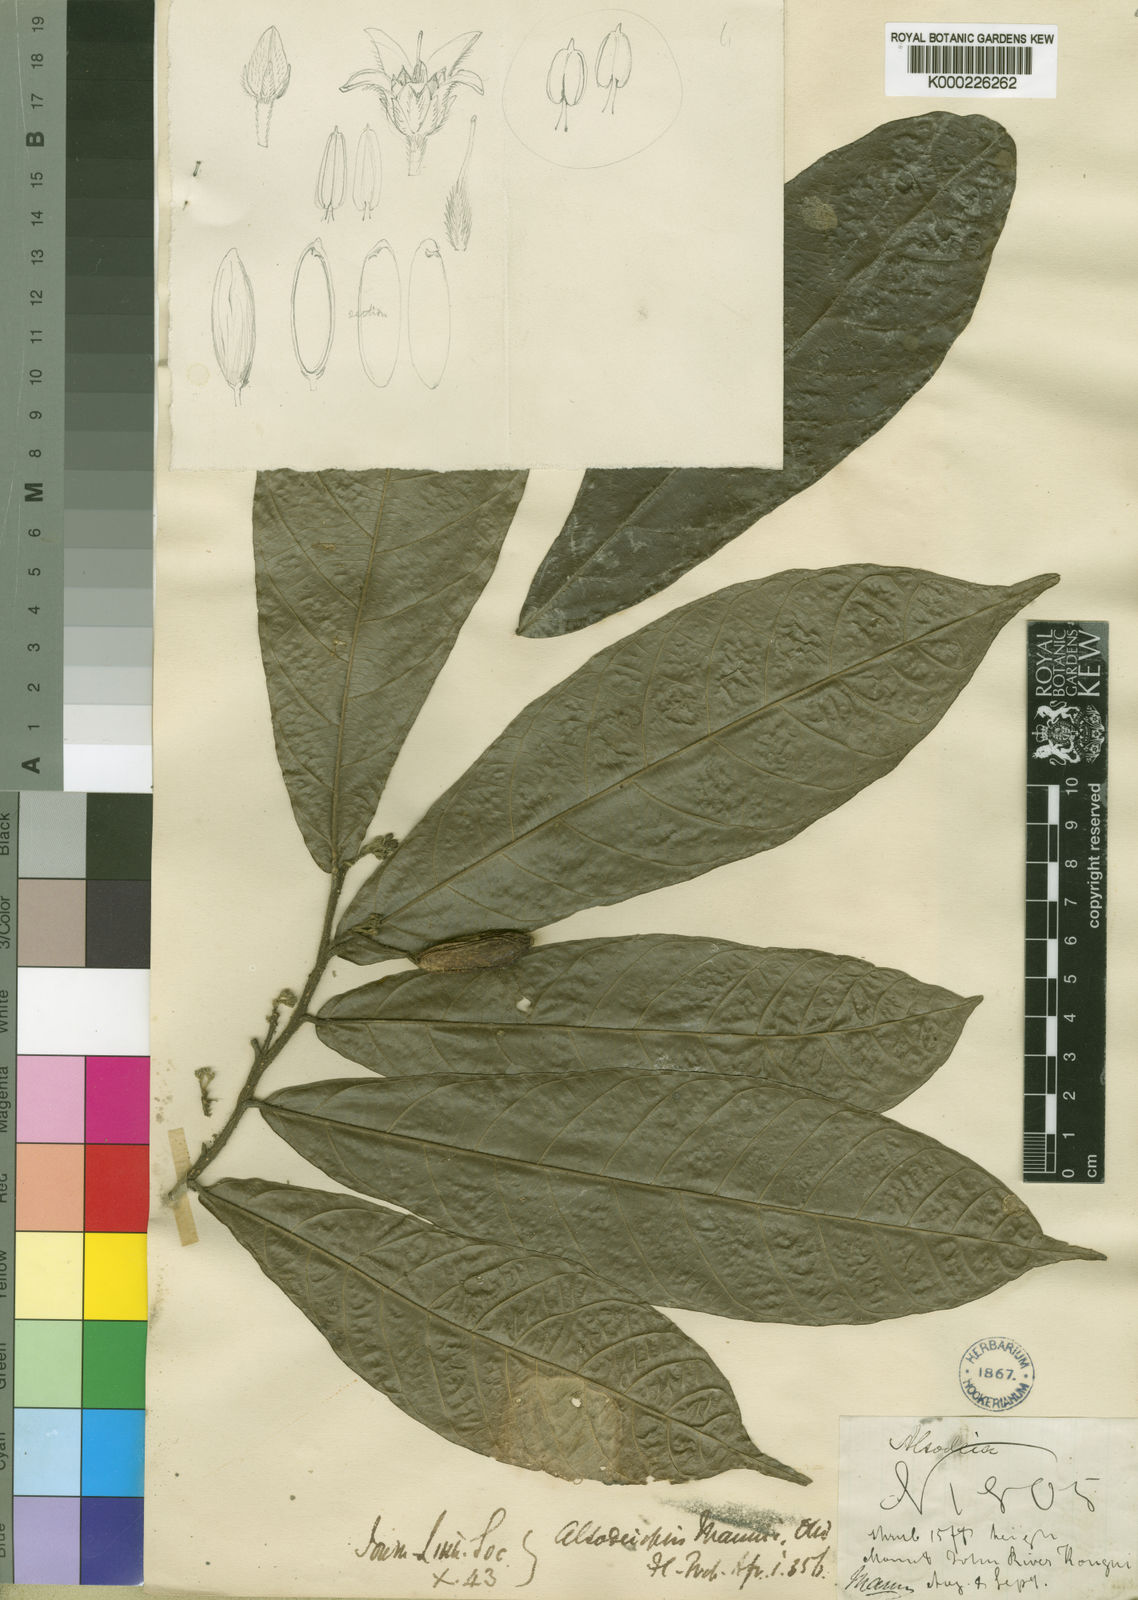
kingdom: Plantae
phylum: Tracheophyta
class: Magnoliopsida
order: Icacinales
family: Icacinaceae
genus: Alsodeiopsis
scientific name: Alsodeiopsis mannii
